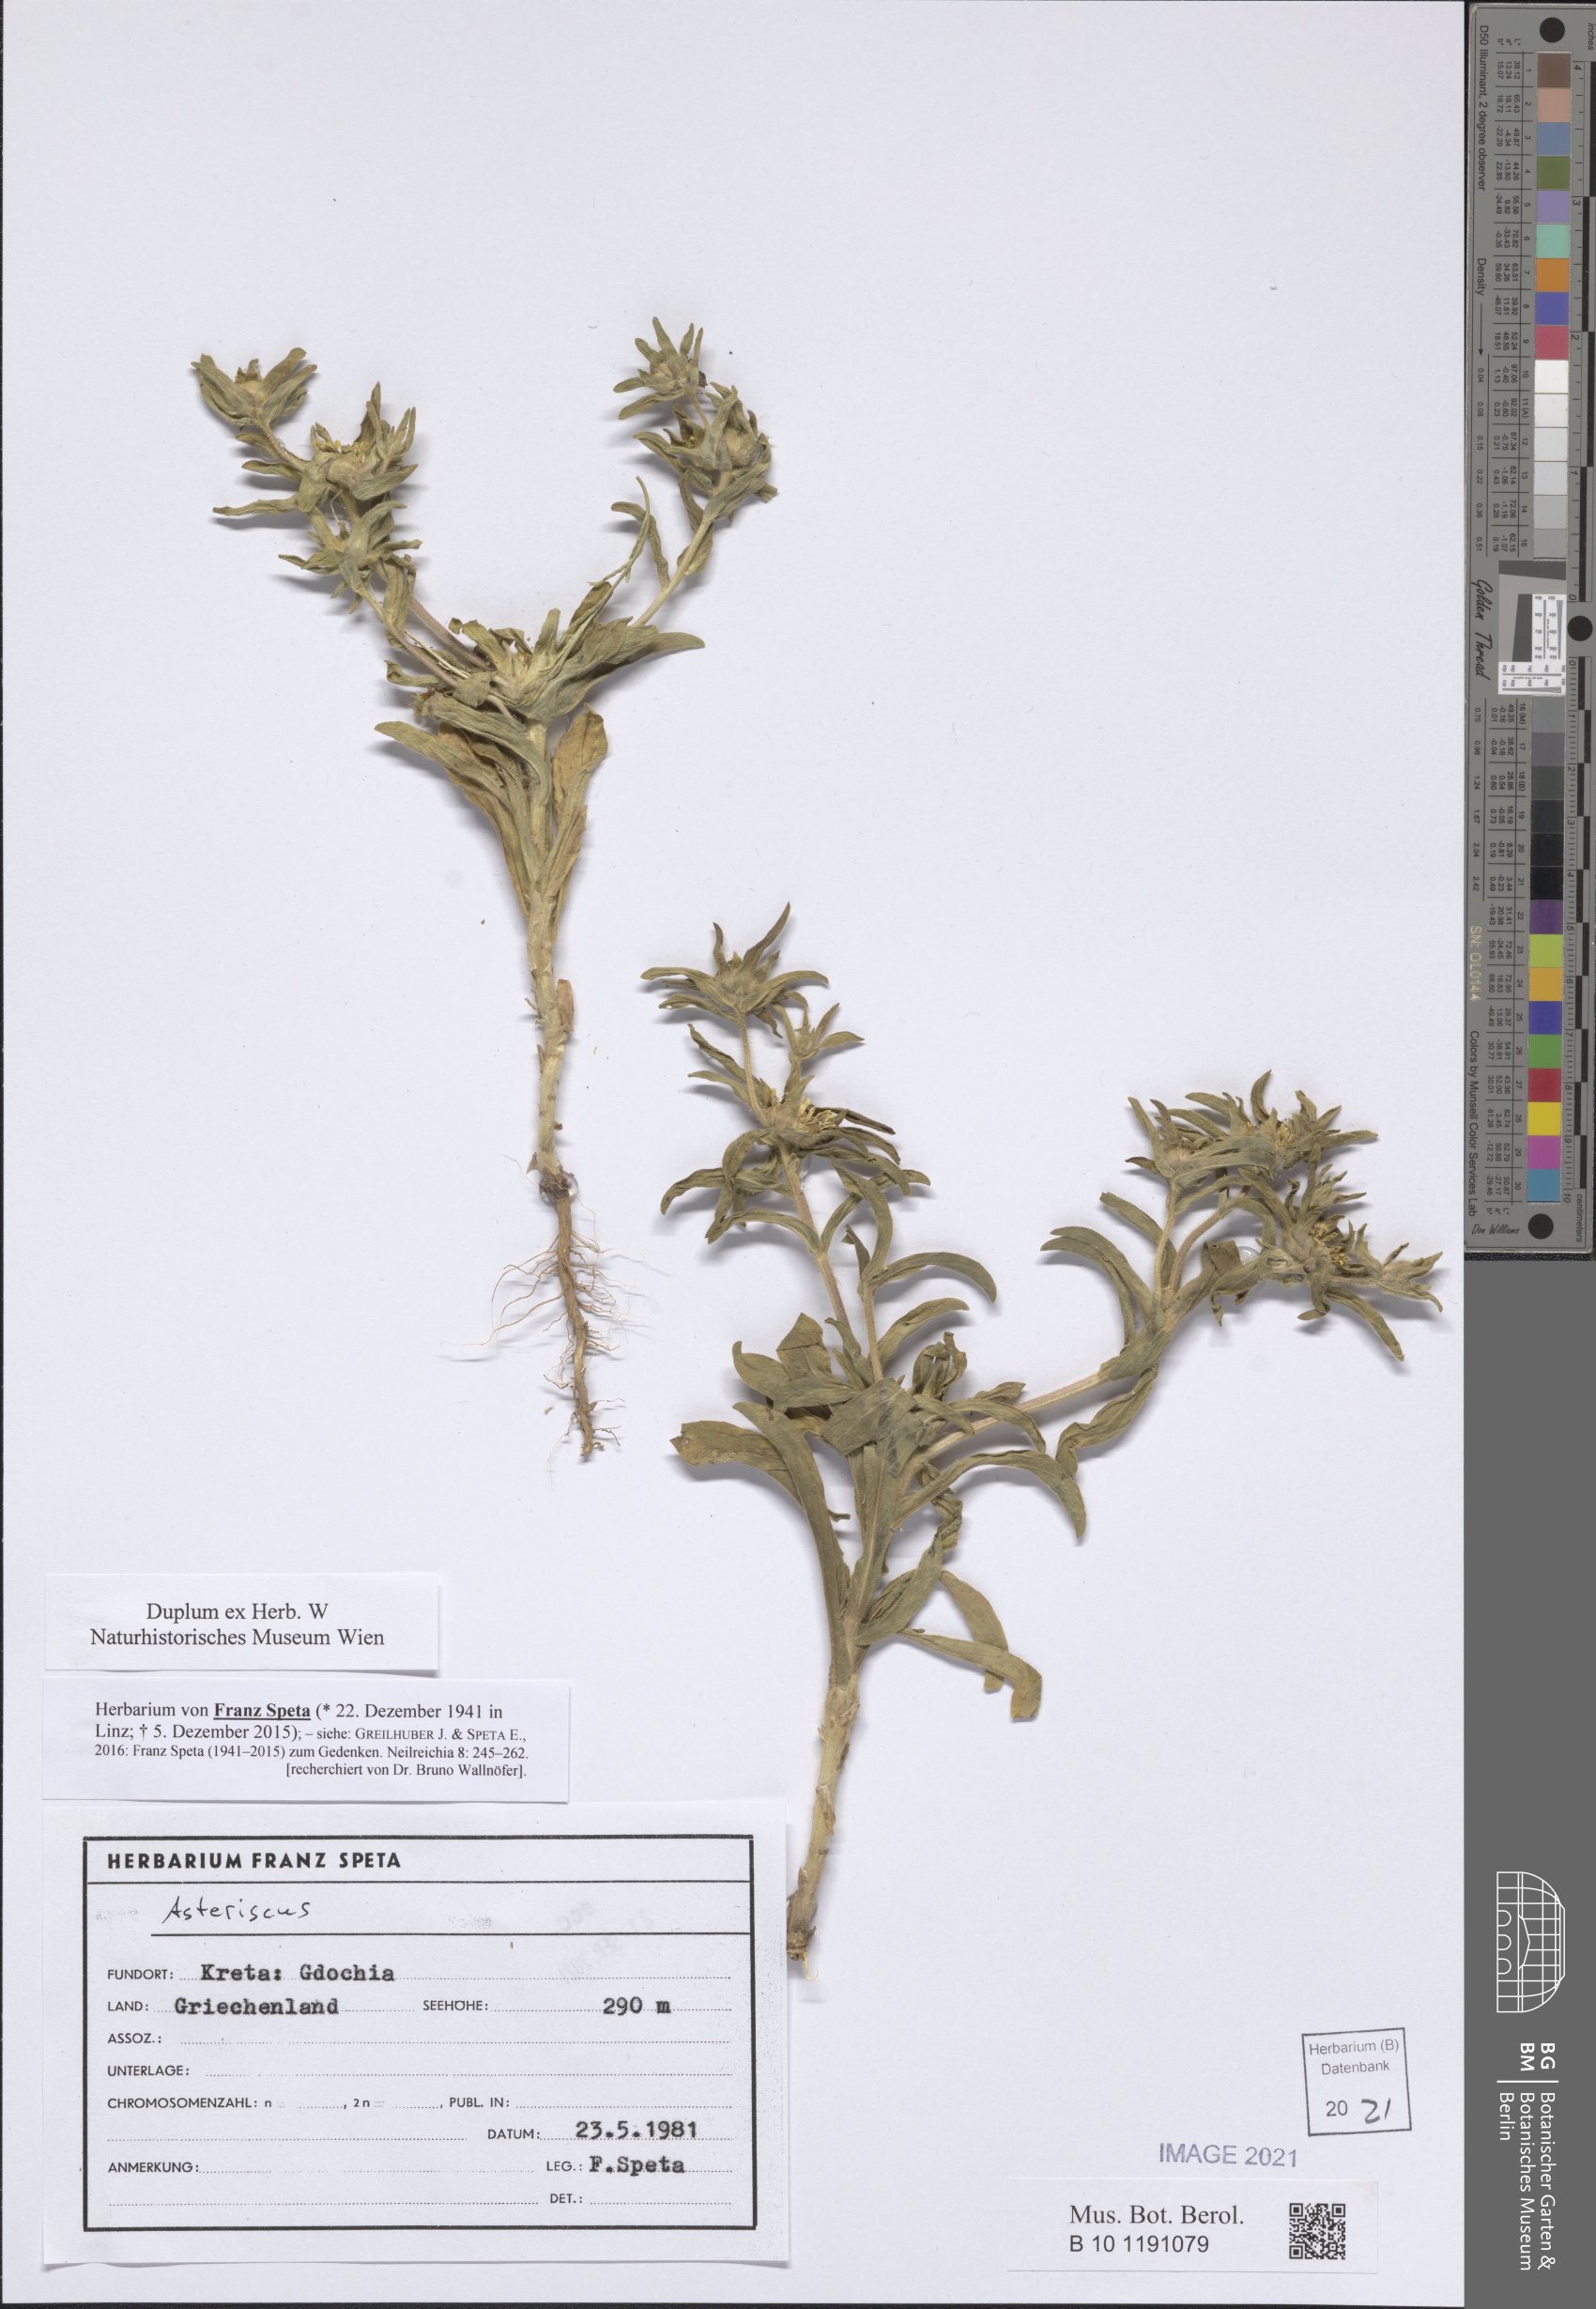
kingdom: Plantae
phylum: Tracheophyta
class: Magnoliopsida
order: Asterales
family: Asteraceae
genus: Asteriscus
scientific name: Asteriscus
